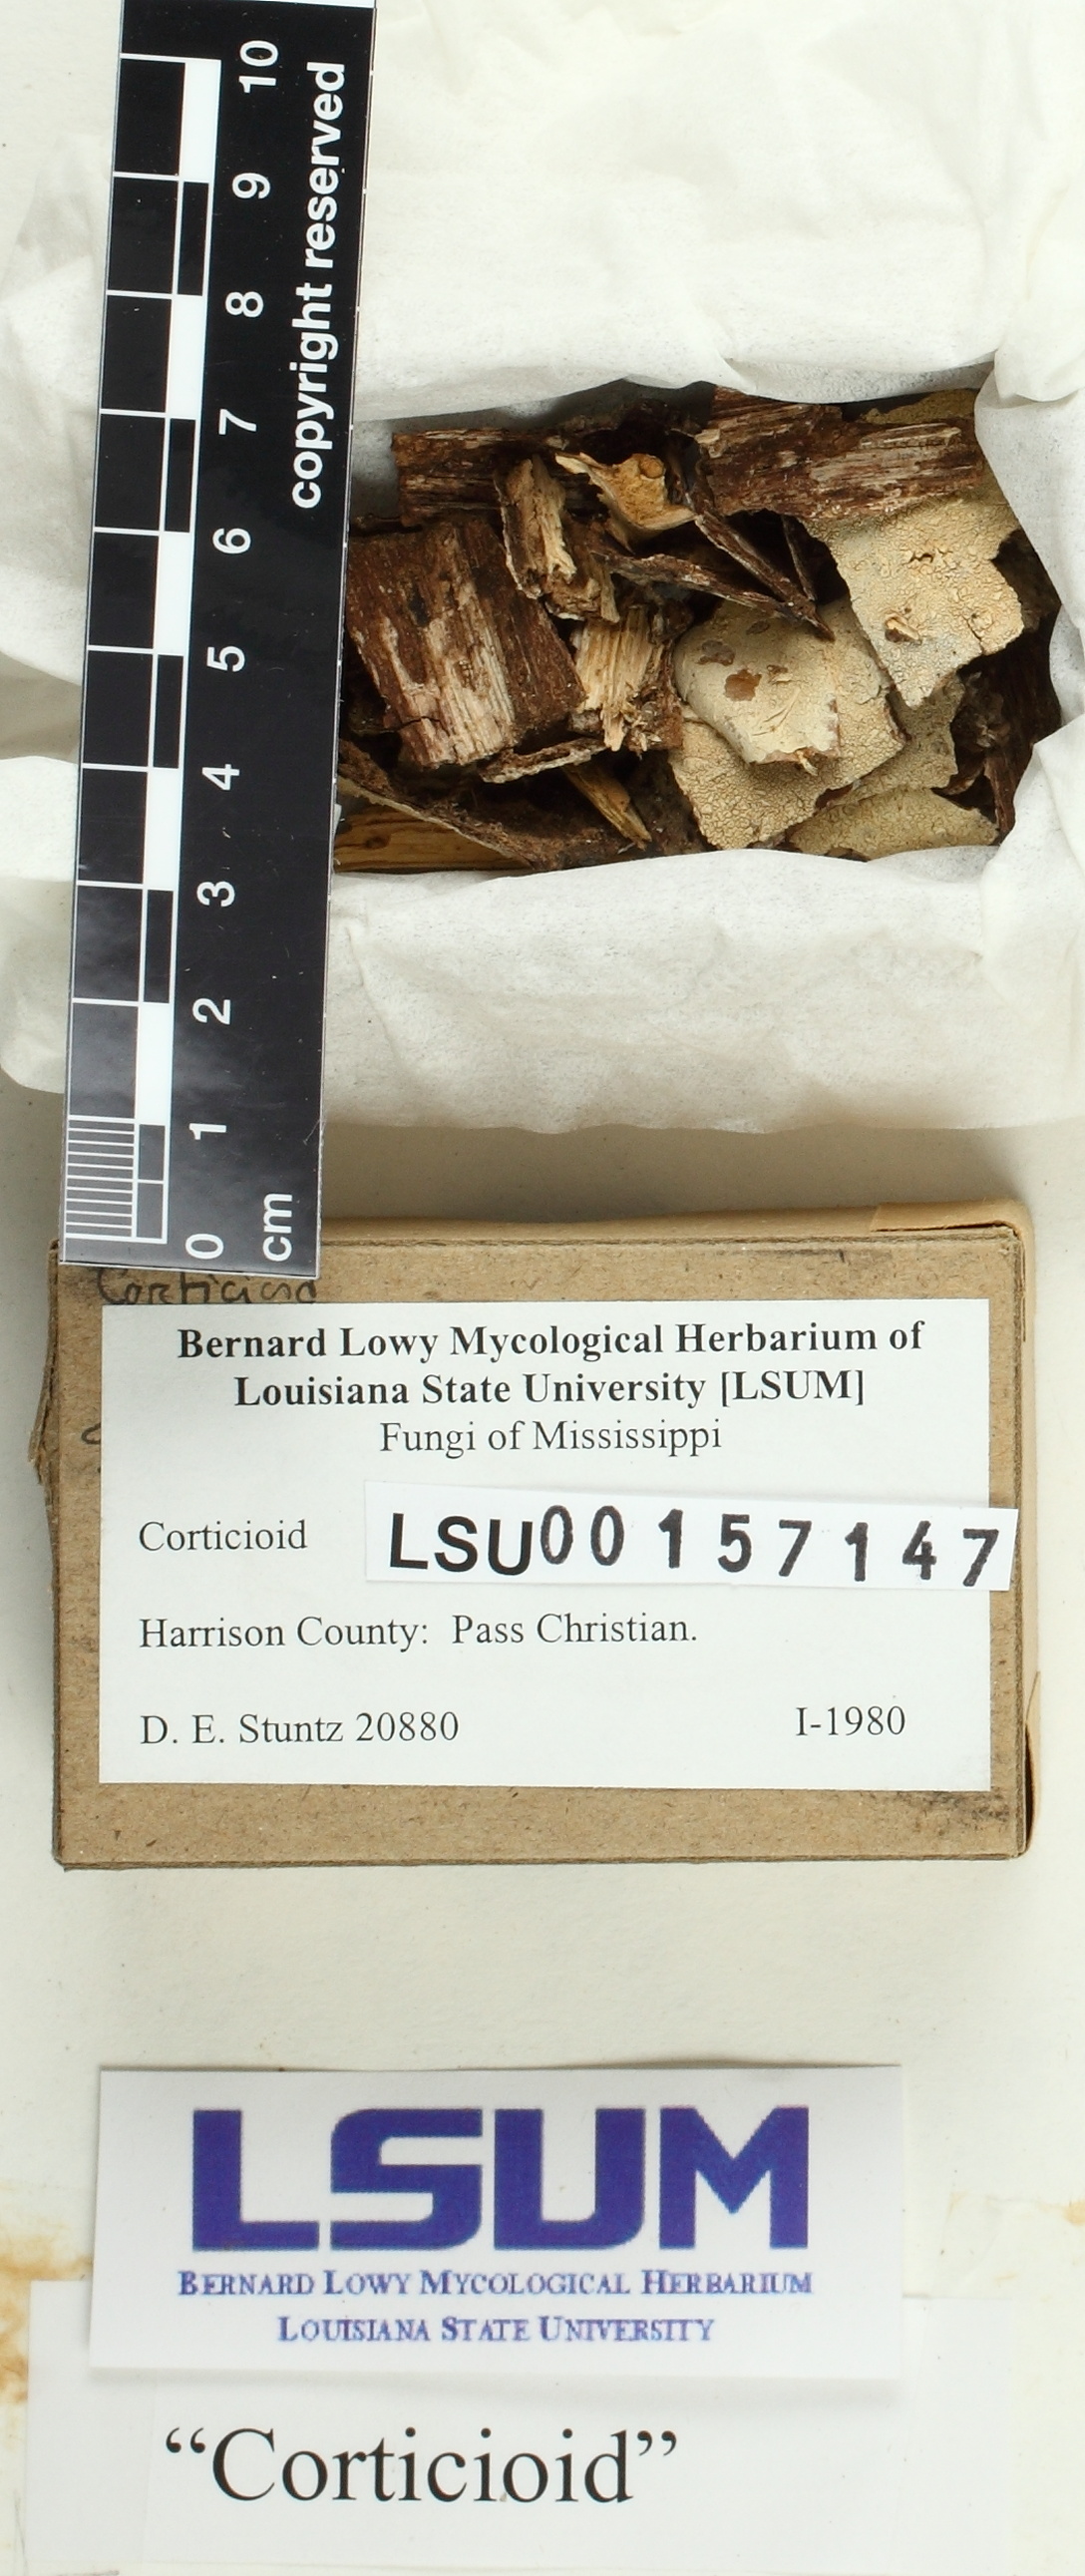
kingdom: Fungi
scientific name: Fungi
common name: Fungi
